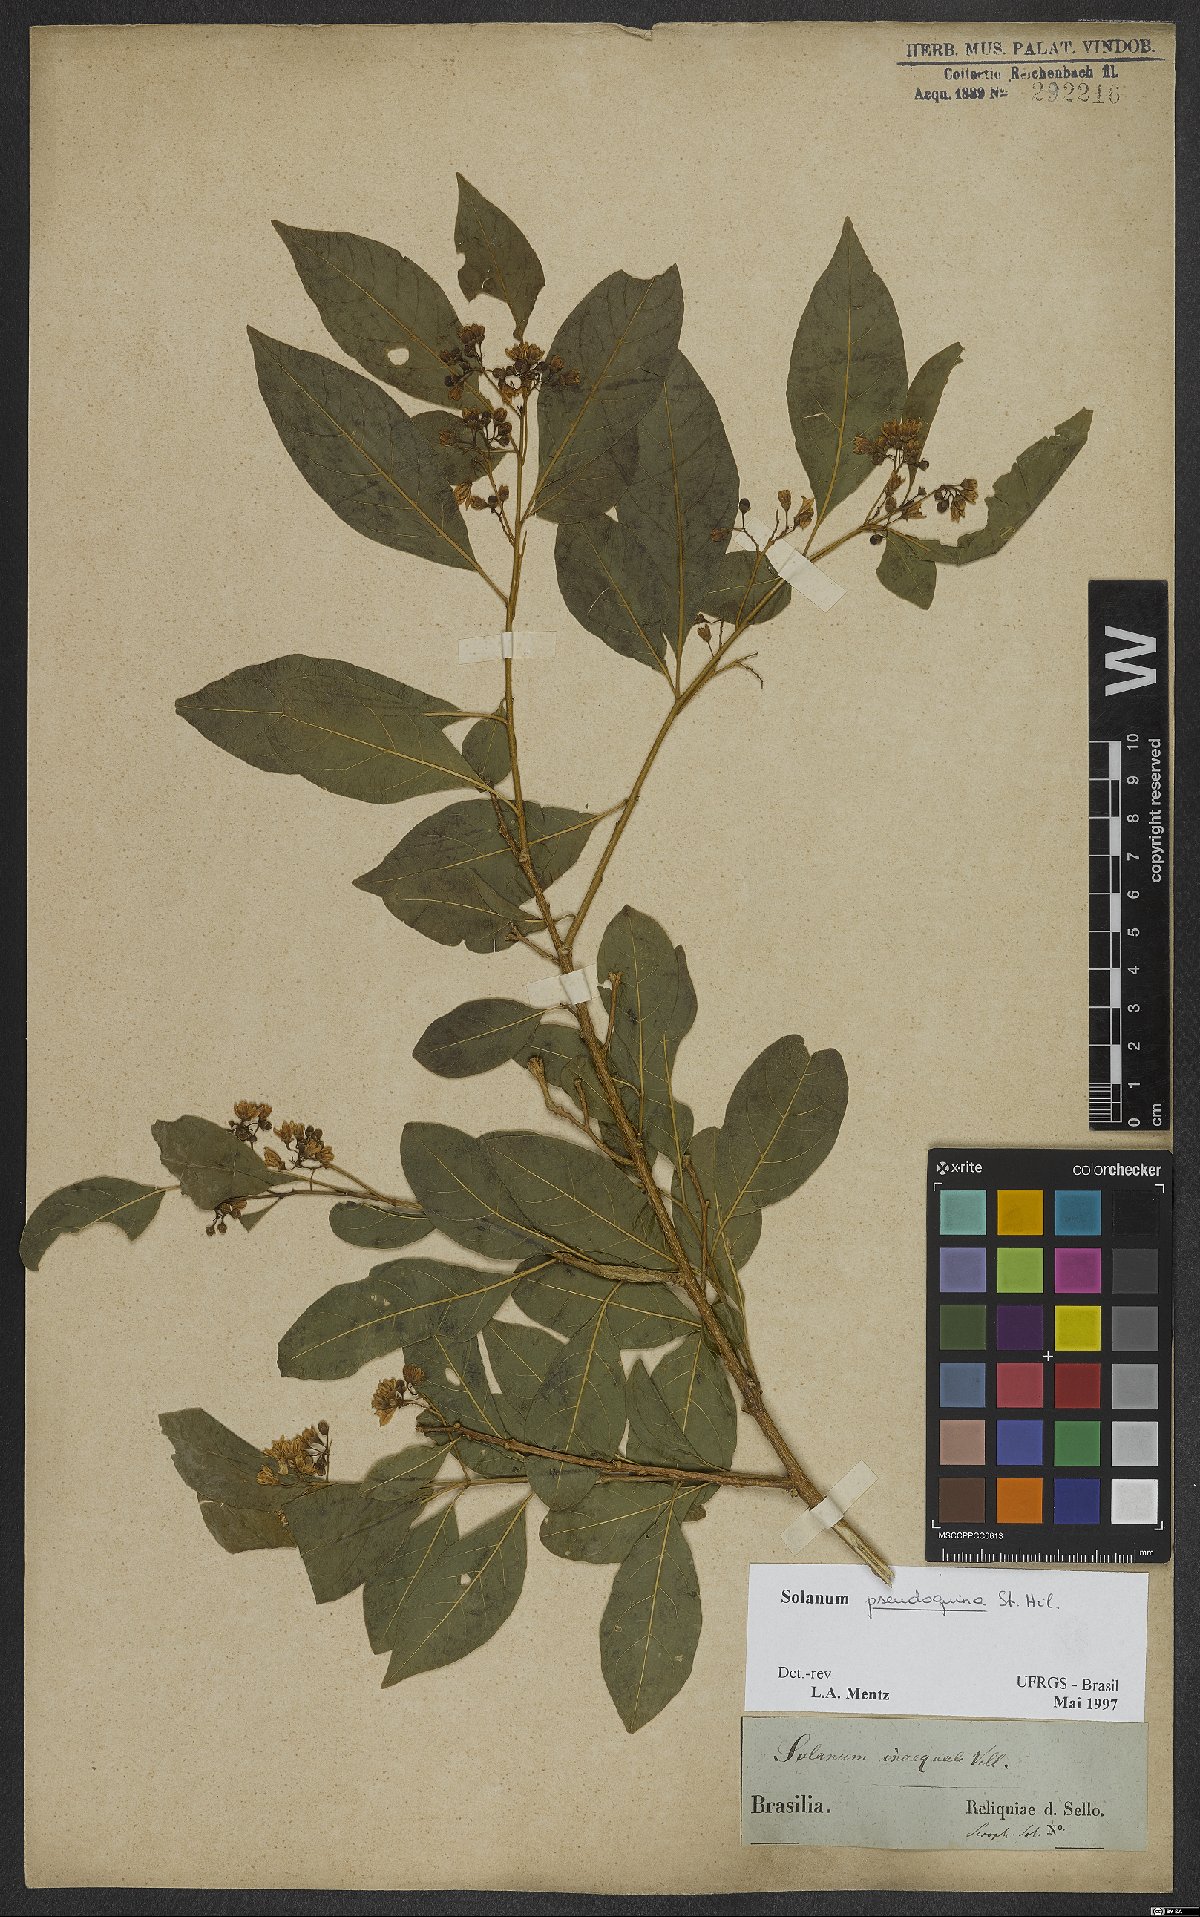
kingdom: Plantae
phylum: Tracheophyta
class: Magnoliopsida
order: Solanales
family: Solanaceae
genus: Solanum
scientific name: Solanum pseudoquina
